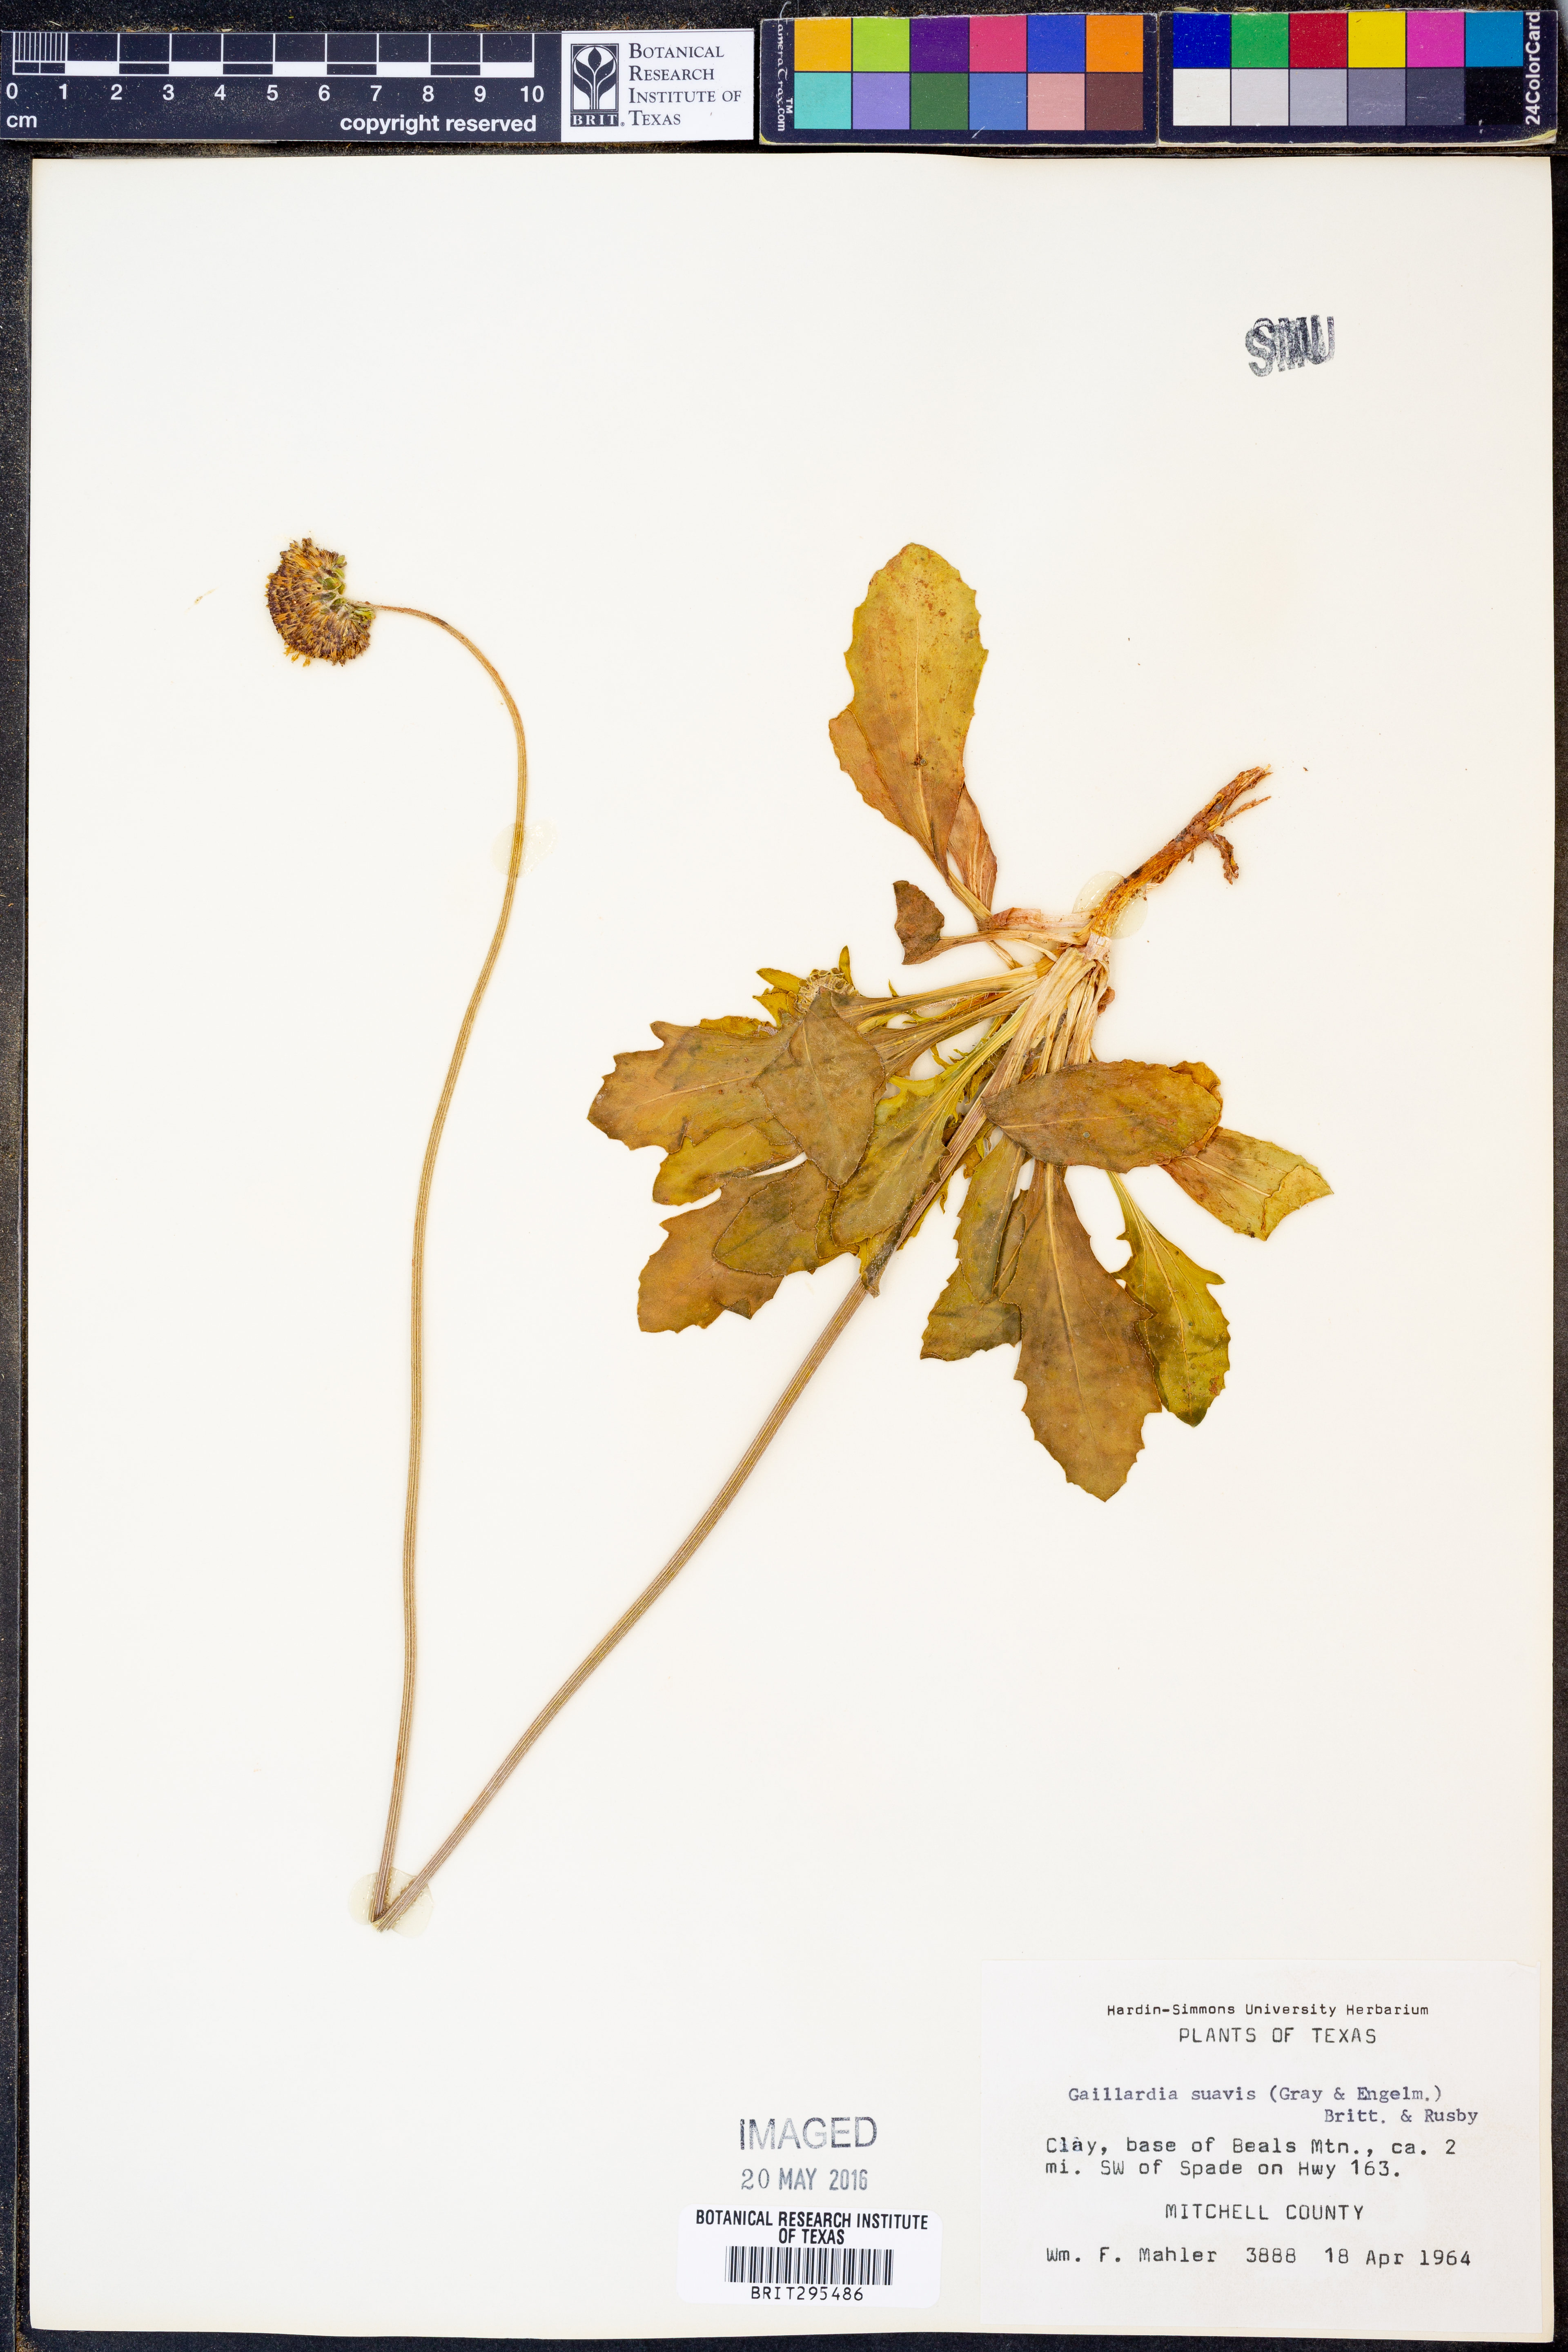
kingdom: Plantae
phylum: Tracheophyta
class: Magnoliopsida
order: Asterales
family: Asteraceae
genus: Gaillardia
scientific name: Gaillardia suavis
